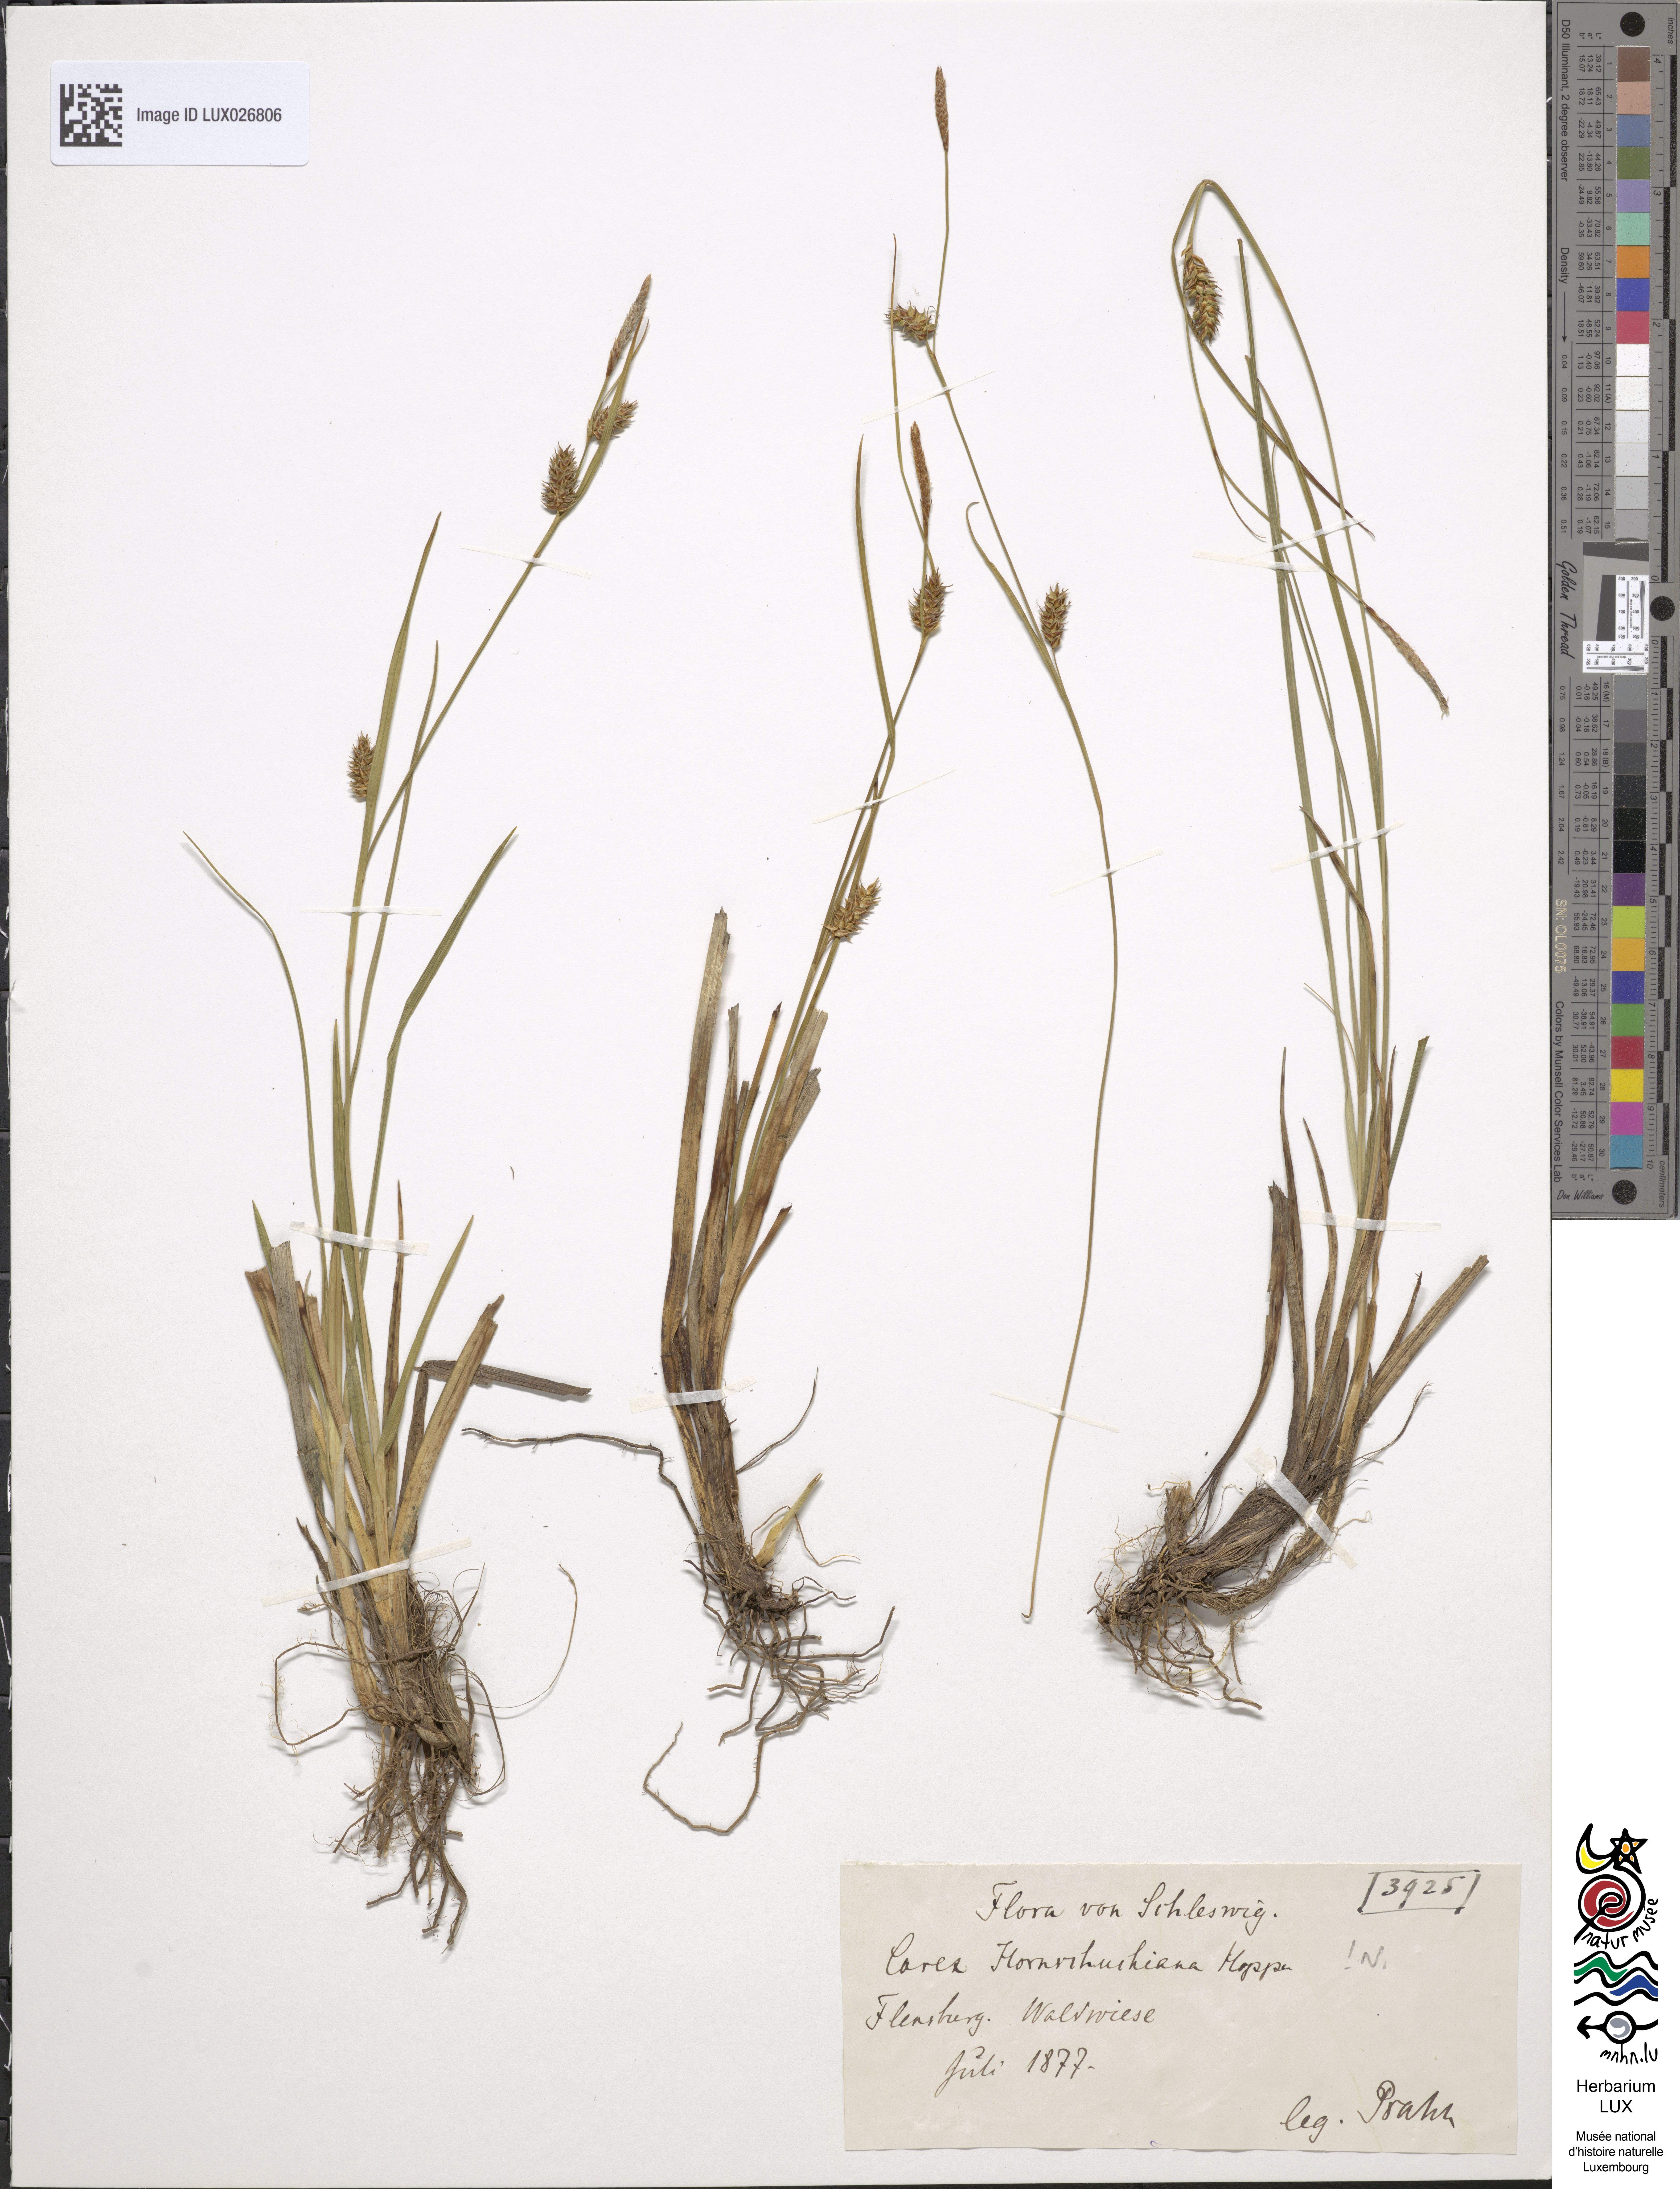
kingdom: Plantae
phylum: Tracheophyta
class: Liliopsida
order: Poales
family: Cyperaceae
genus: Carex
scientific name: Carex hostiana
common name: Tawny sedge
